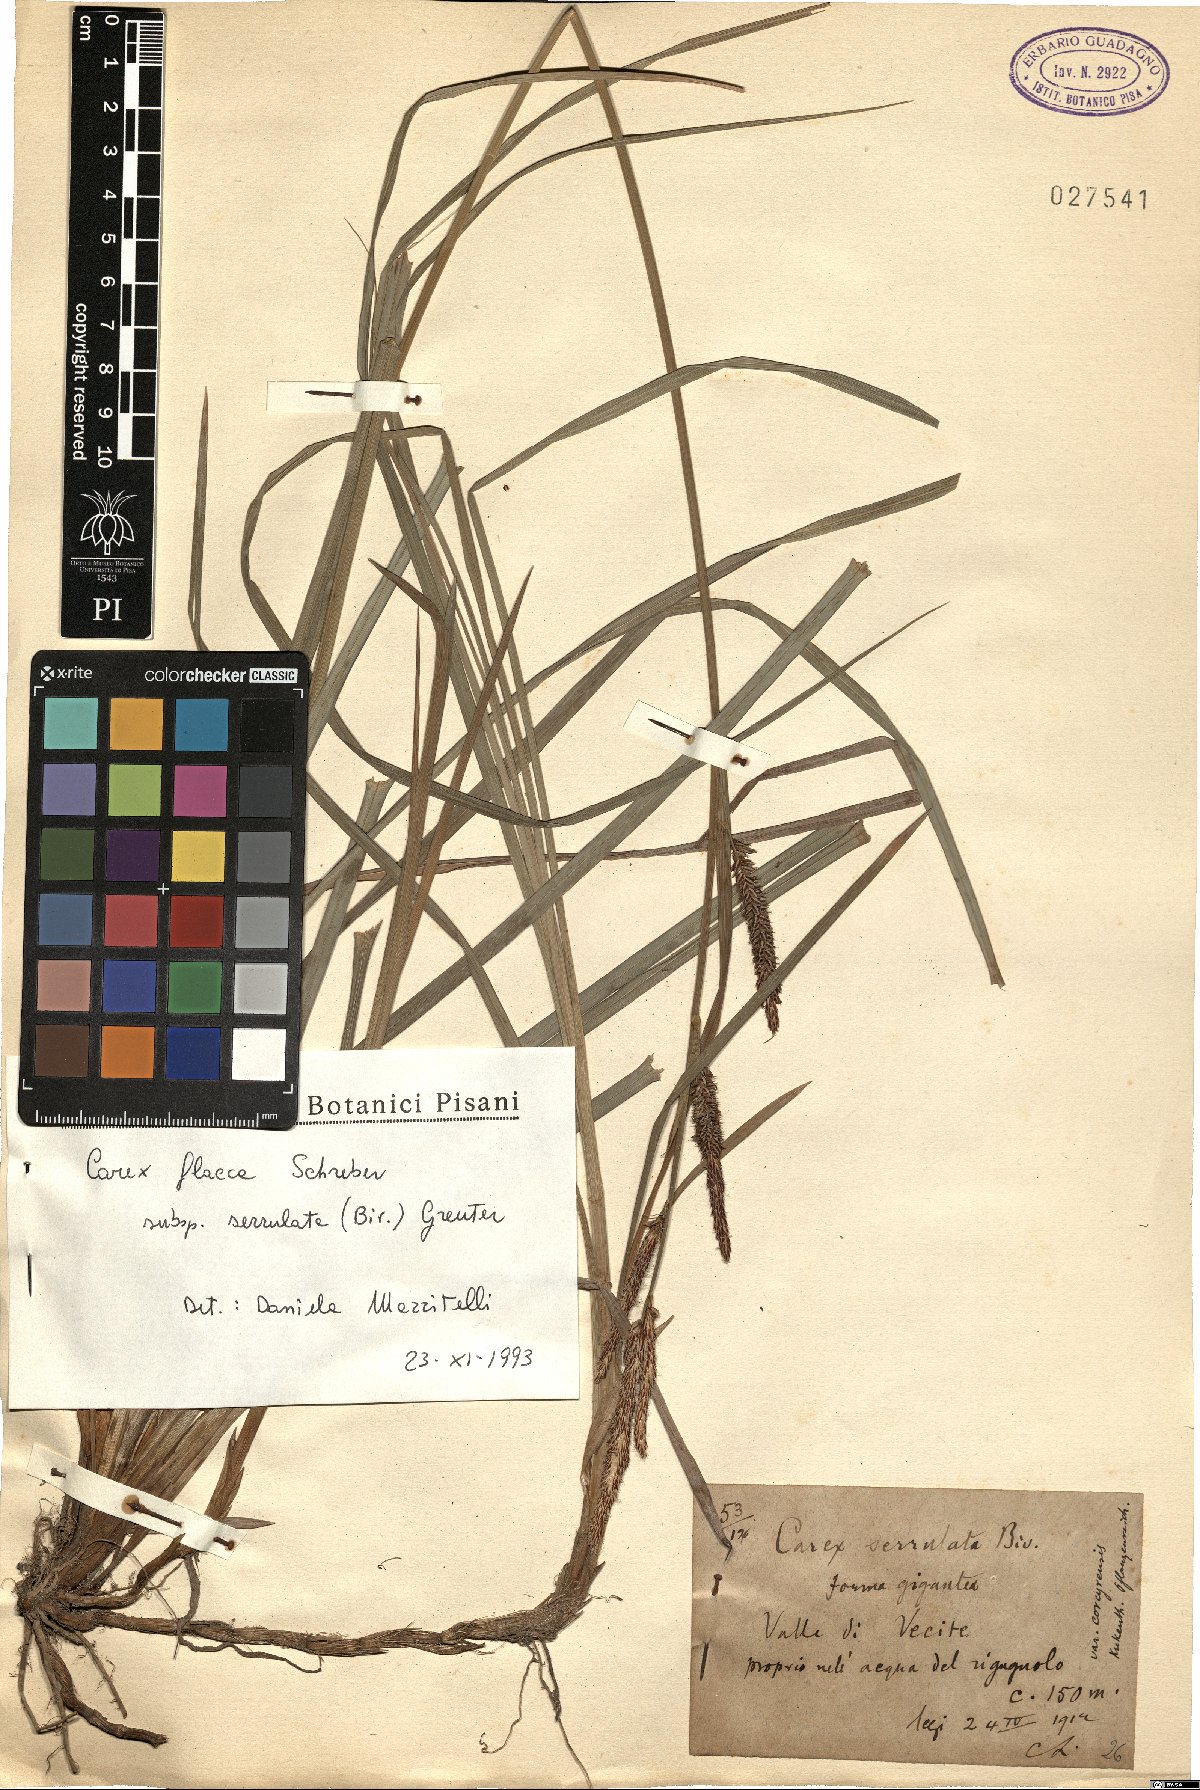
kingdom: Plantae
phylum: Tracheophyta
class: Liliopsida
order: Poales
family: Cyperaceae
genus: Carex
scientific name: Carex flacca
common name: Glaucous sedge
